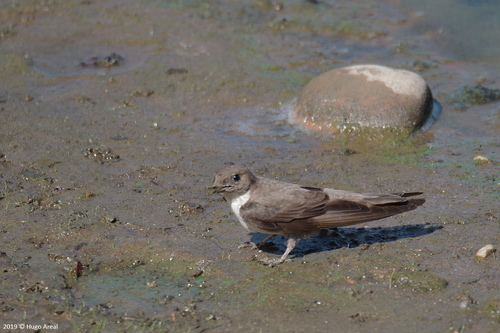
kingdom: Animalia
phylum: Chordata
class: Aves
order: Passeriformes
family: Hirundinidae
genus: Ptyonoprogne
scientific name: Ptyonoprogne rupestris
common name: Eurasian crag martin
